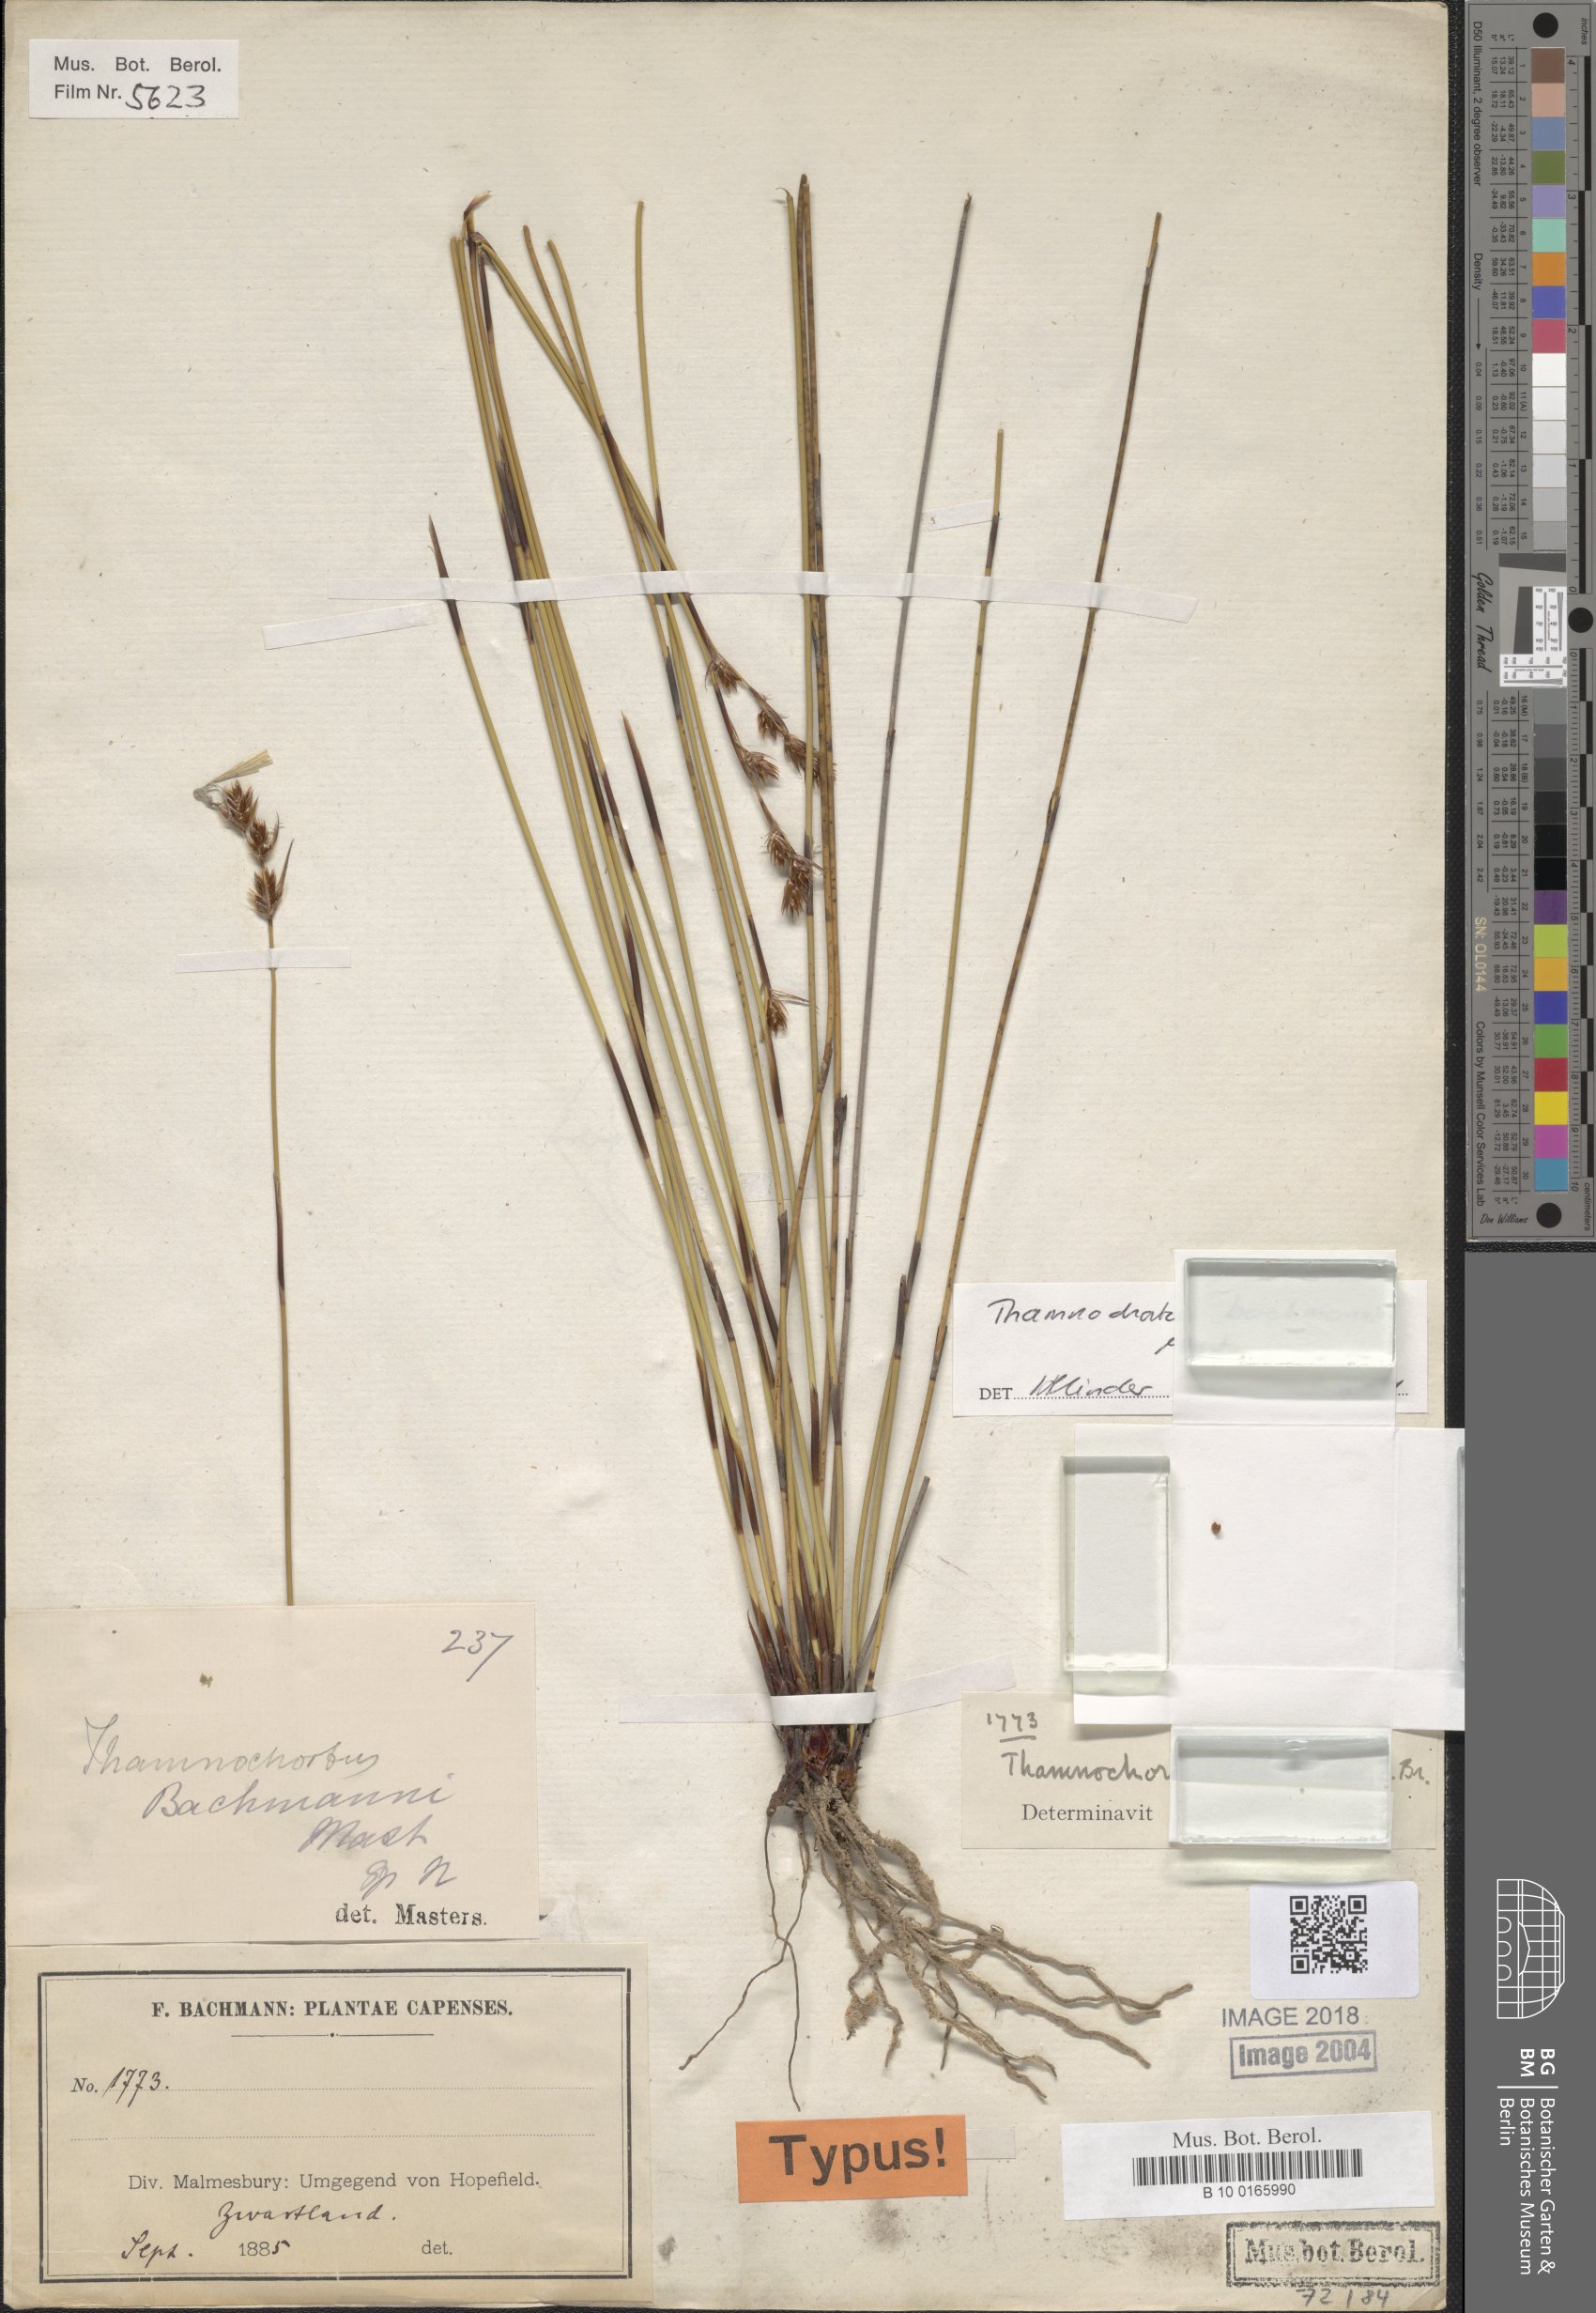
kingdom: Plantae
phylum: Tracheophyta
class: Liliopsida
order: Poales
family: Restionaceae
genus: Thamnochortus
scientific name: Thamnochortus bachmannii
